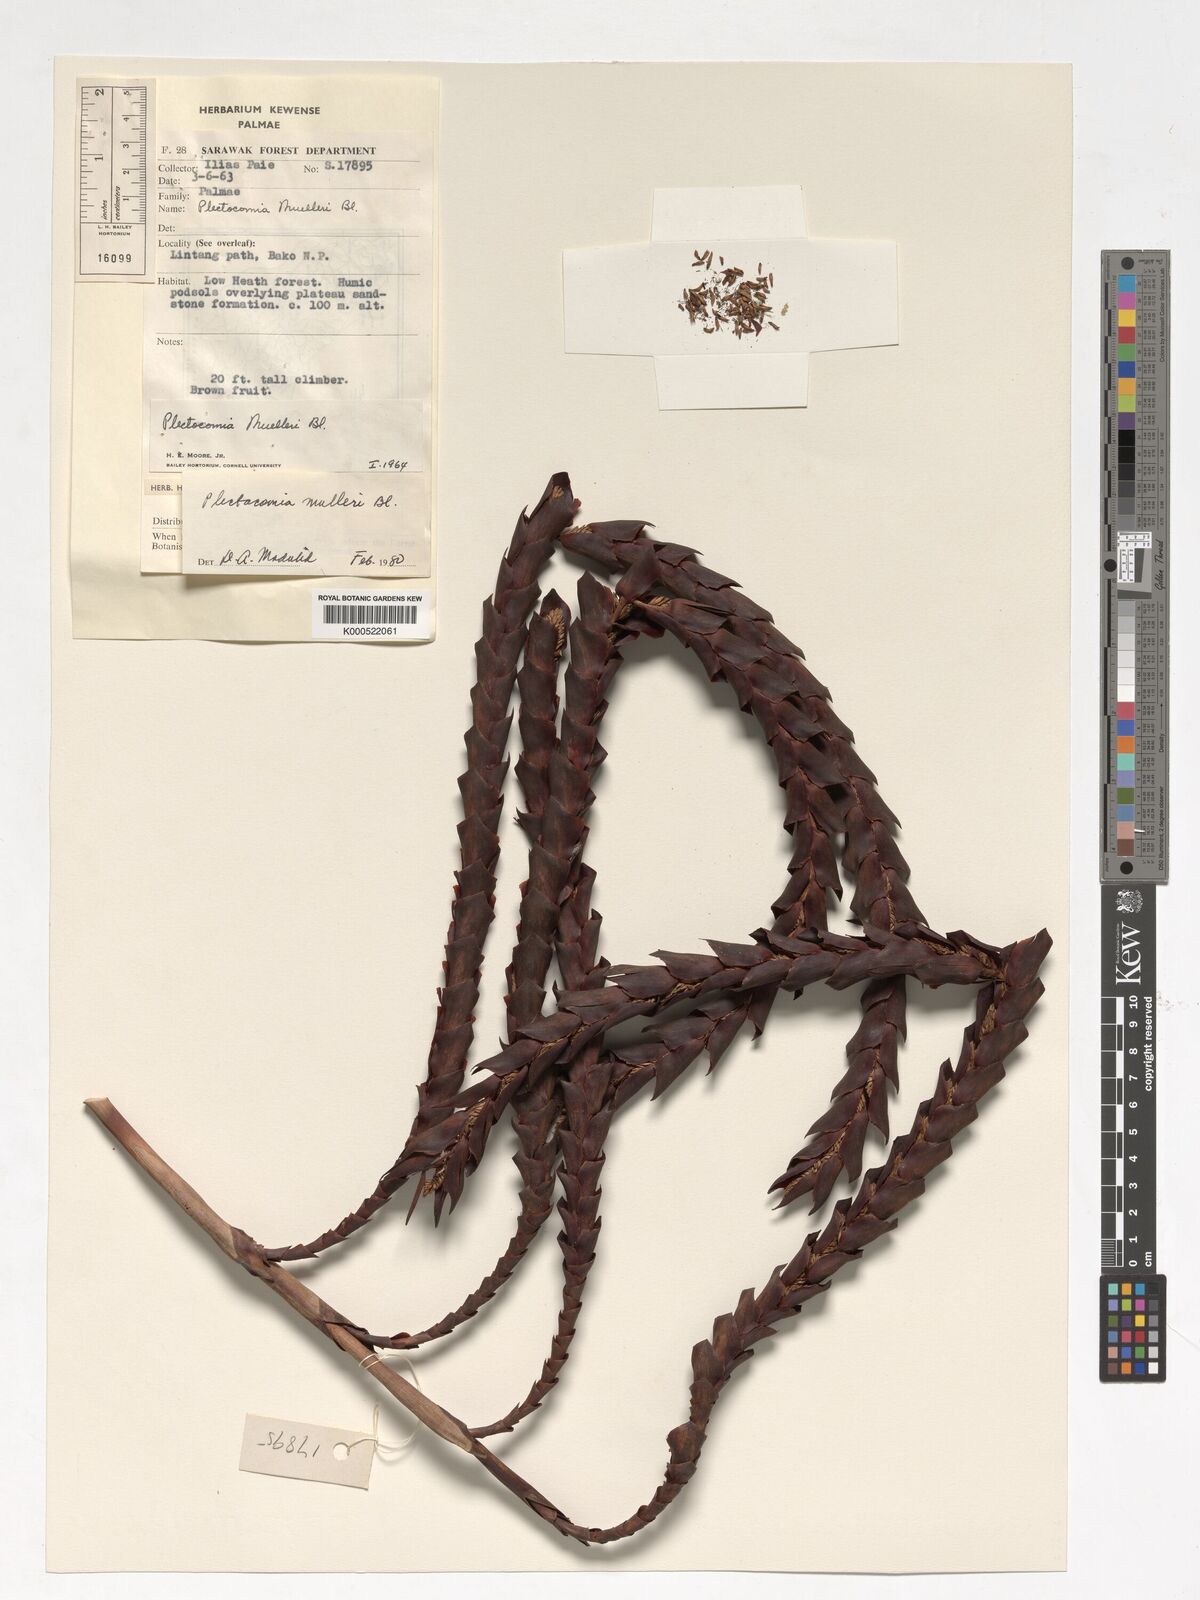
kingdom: Plantae
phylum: Tracheophyta
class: Liliopsida
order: Arecales
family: Arecaceae
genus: Plectocomia
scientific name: Plectocomia mulleri
